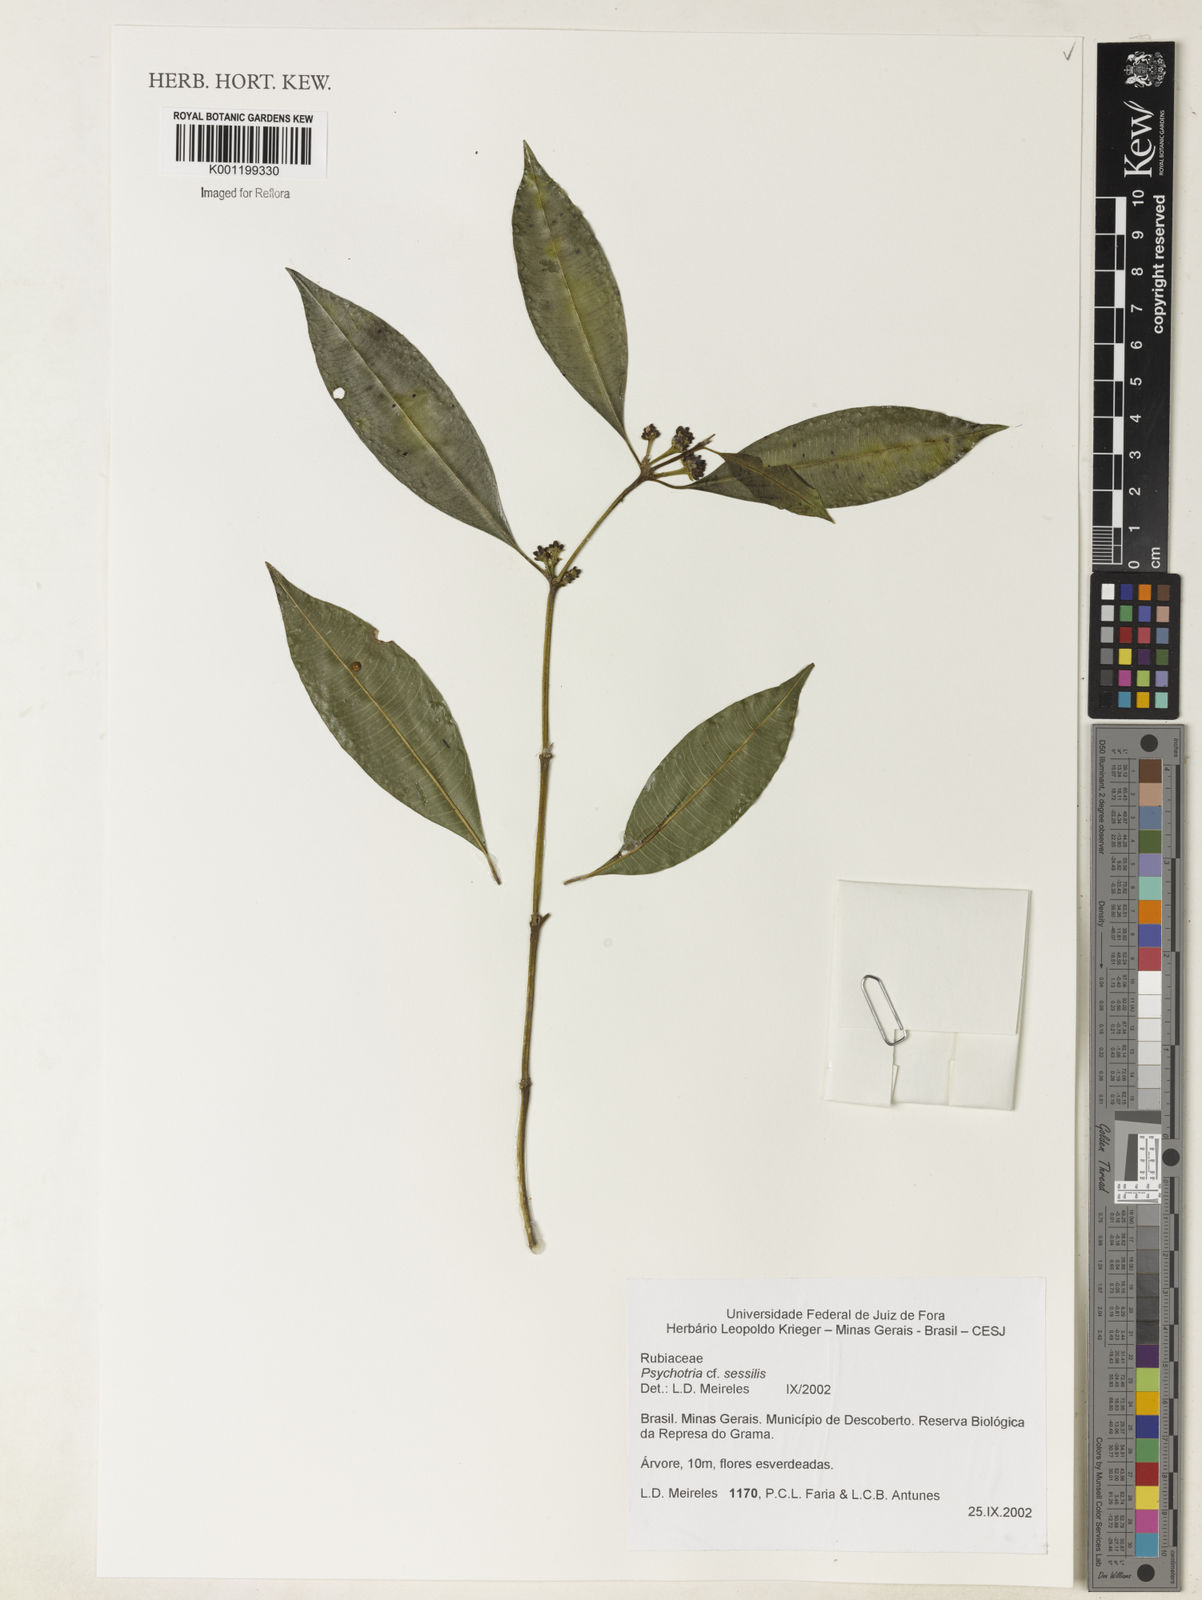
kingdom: Plantae
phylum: Tracheophyta
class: Magnoliopsida
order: Gentianales
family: Rubiaceae
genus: Rudgea
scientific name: Rudgea sessilis
